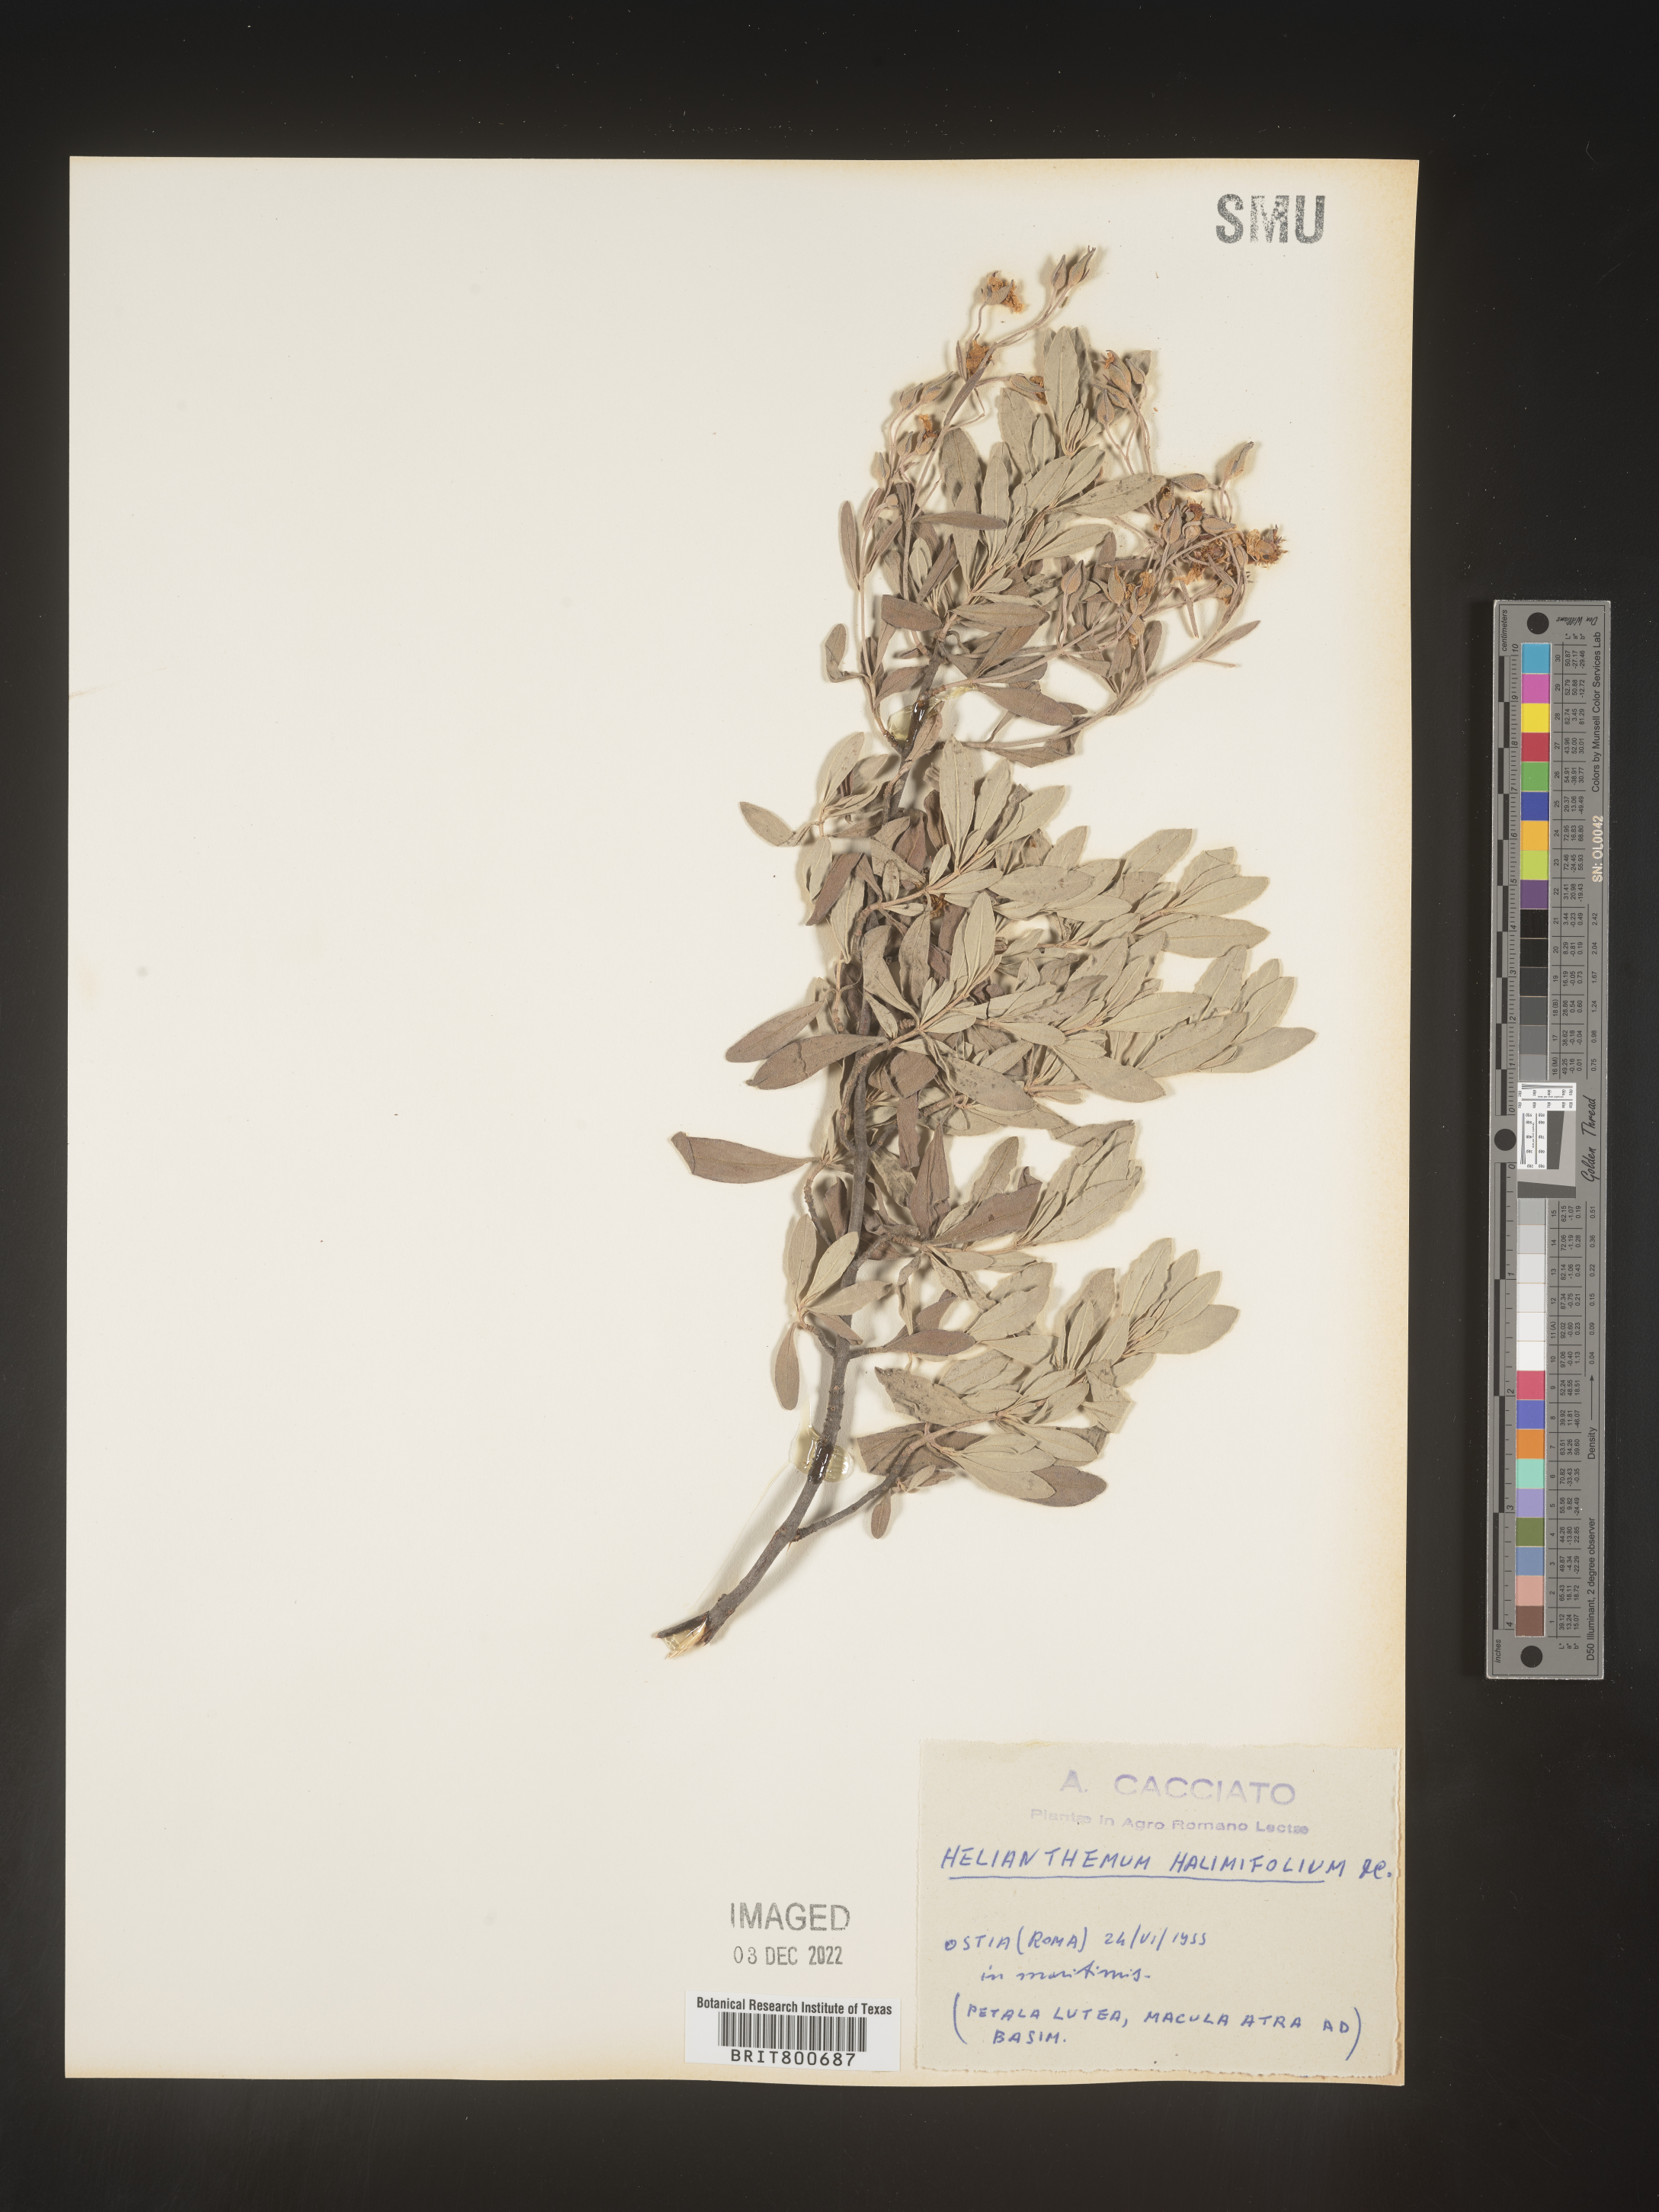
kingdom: Plantae
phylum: Tracheophyta
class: Magnoliopsida
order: Malvales
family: Cistaceae
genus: Helianthemum
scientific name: Helianthemum
